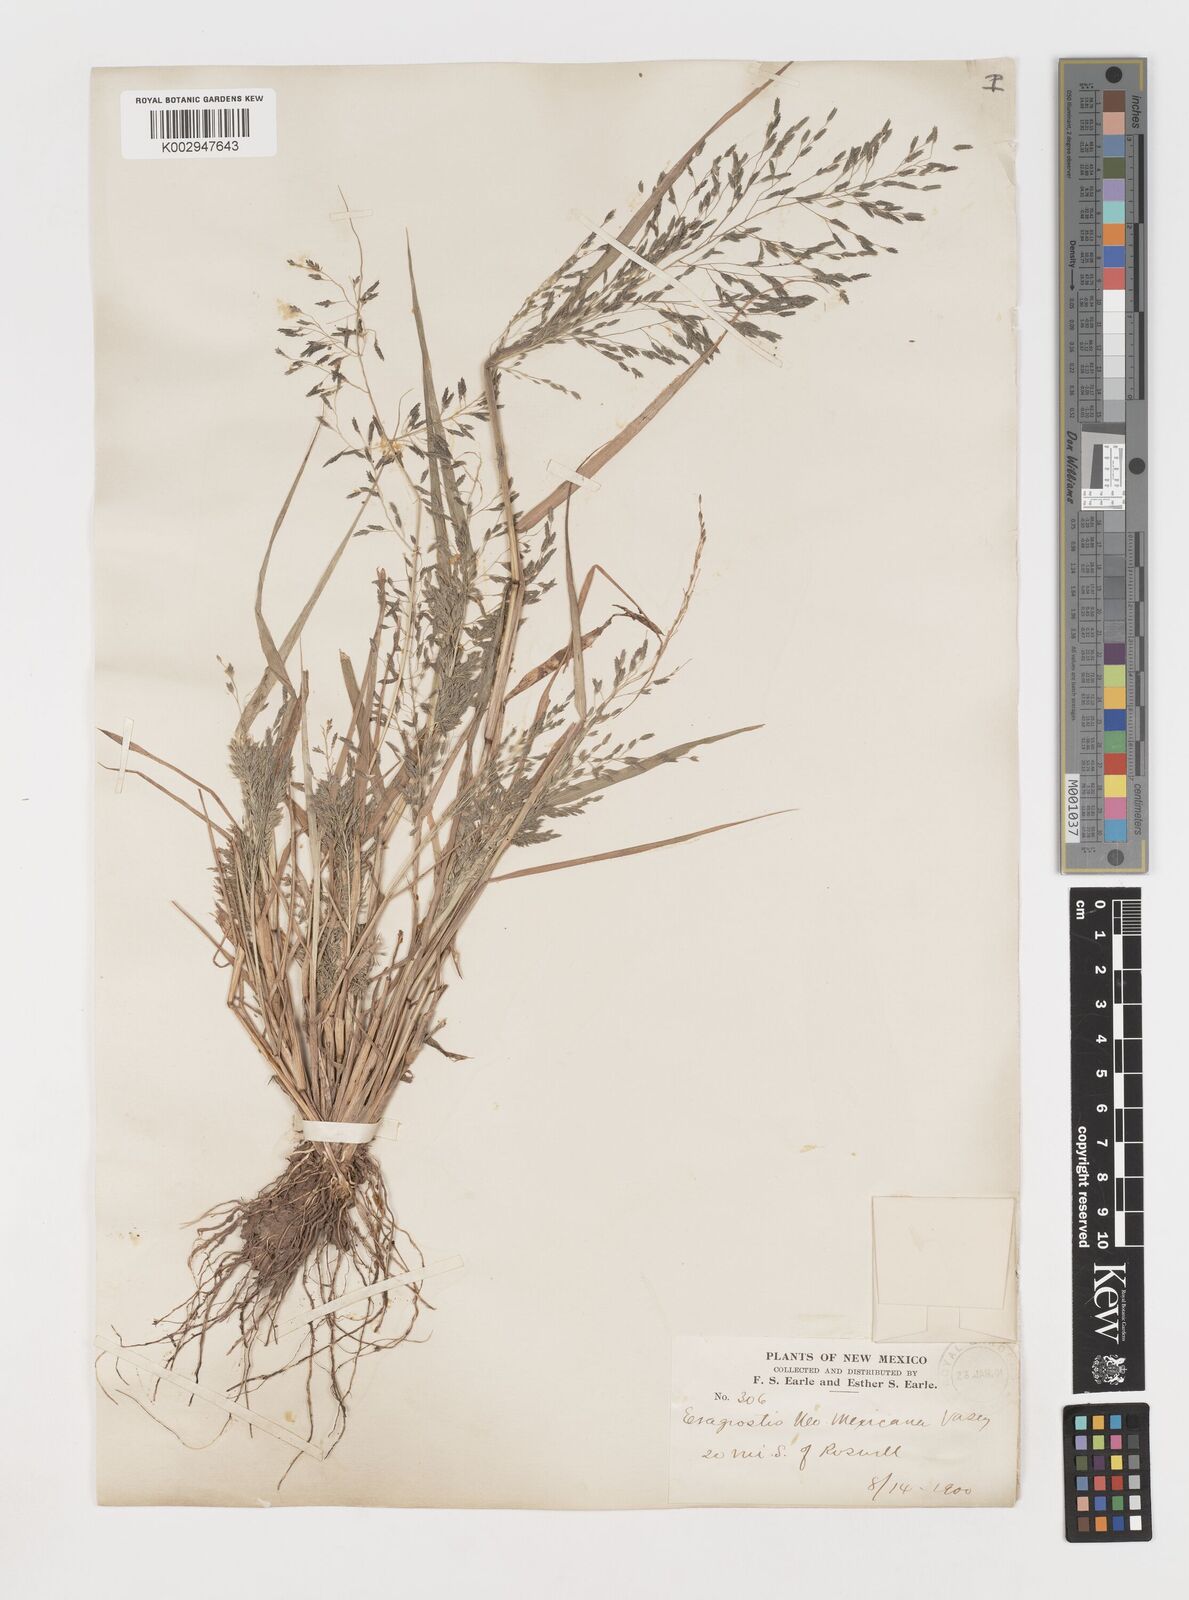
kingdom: Plantae
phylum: Tracheophyta
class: Liliopsida
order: Poales
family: Poaceae
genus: Eragrostis
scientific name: Eragrostis mexicana
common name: Mexican love grass
